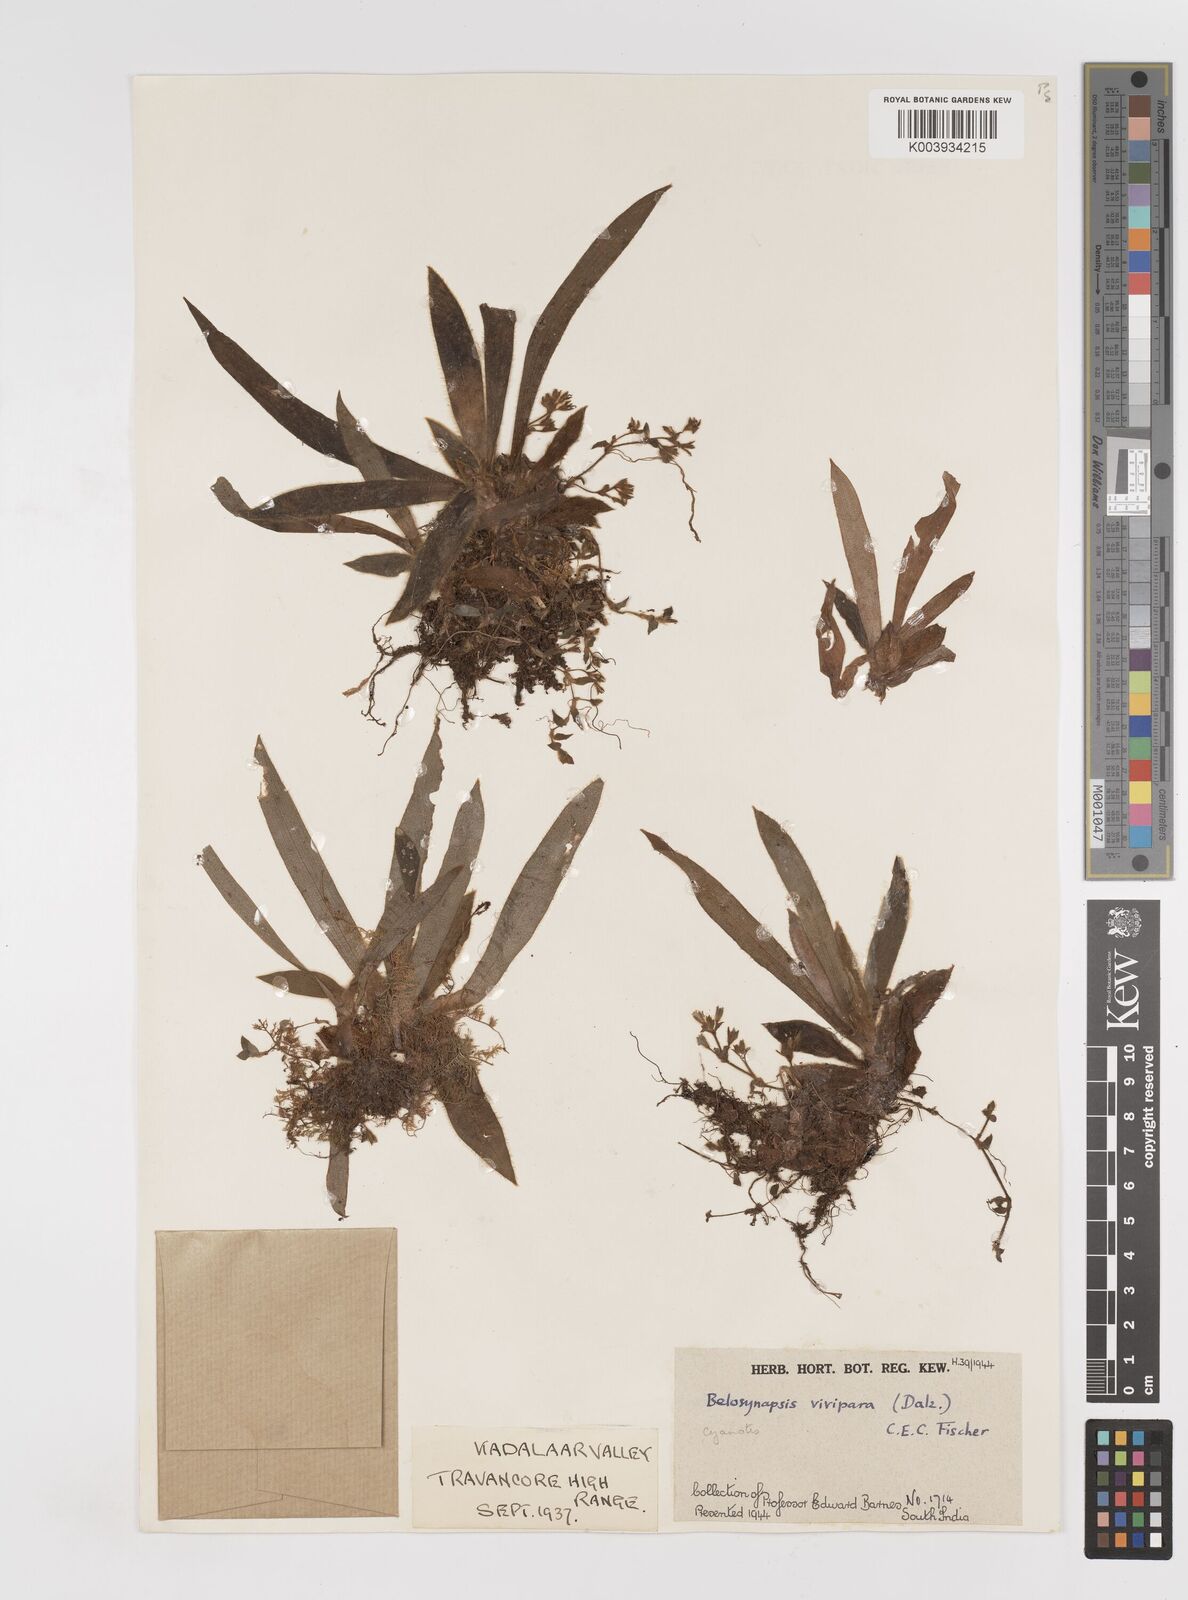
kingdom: Plantae
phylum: Tracheophyta
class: Liliopsida
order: Commelinales
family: Commelinaceae
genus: Cyanotis
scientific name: Cyanotis vivipara
